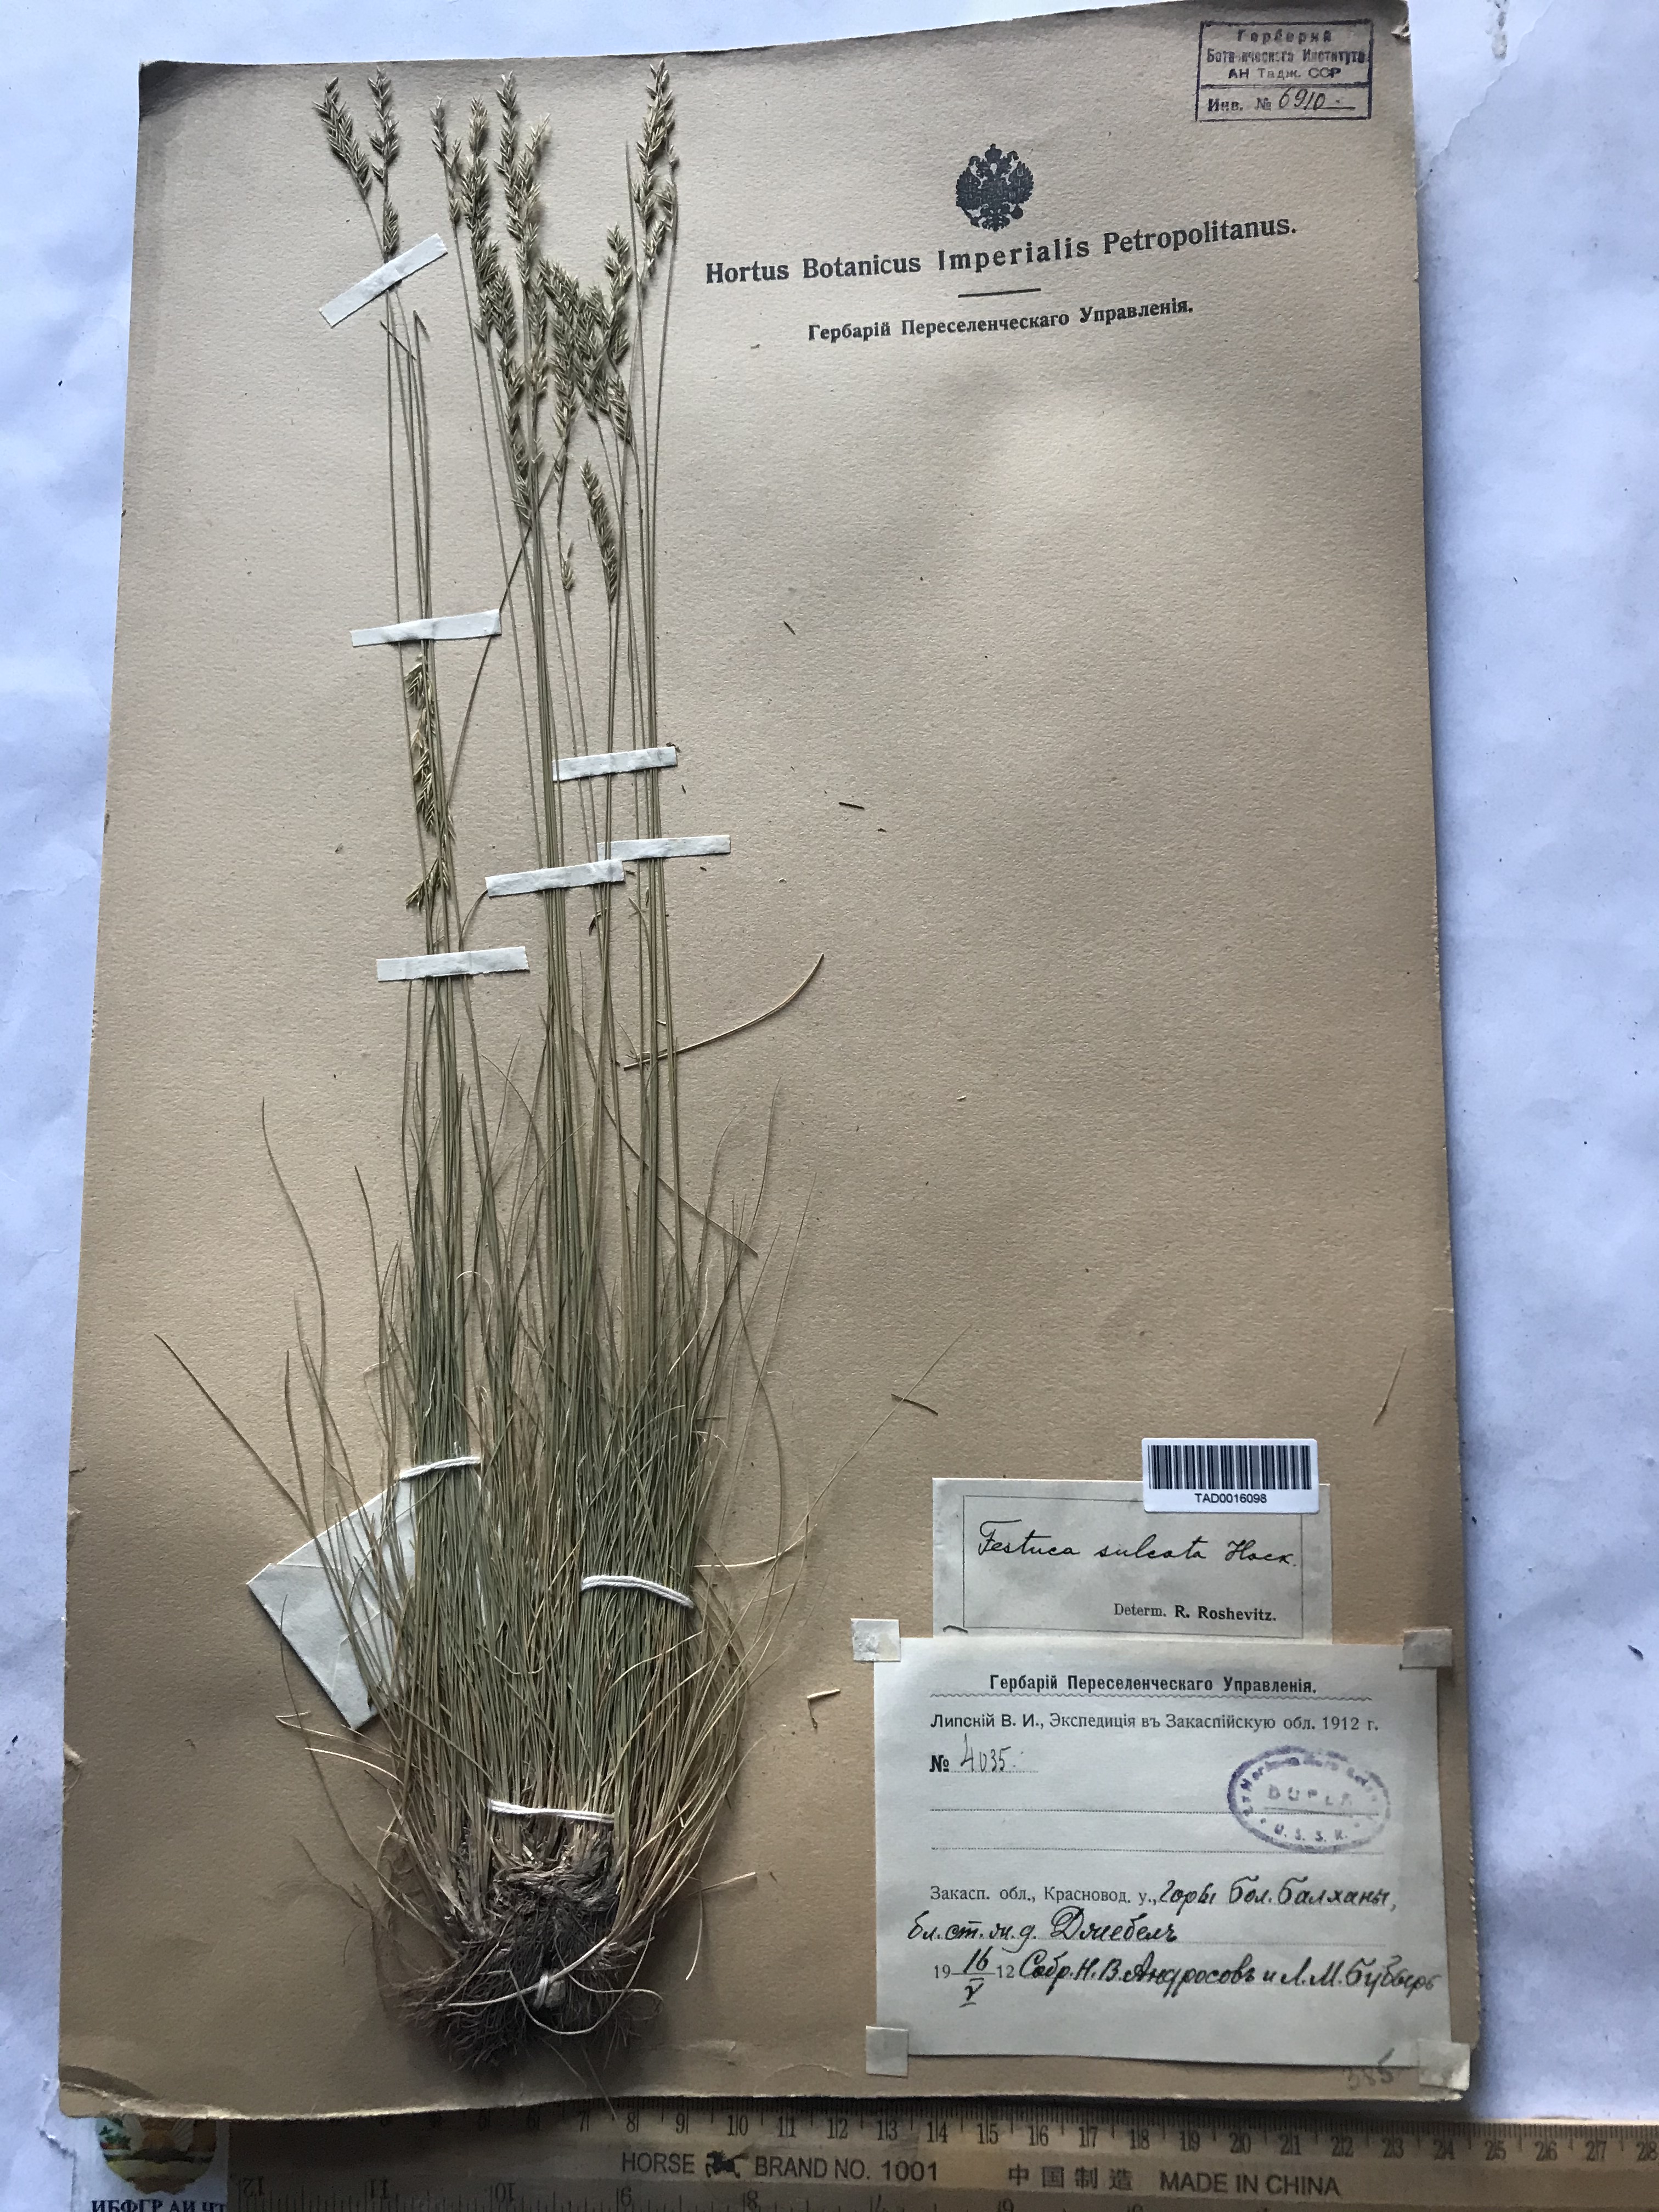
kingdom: Plantae
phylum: Tracheophyta
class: Liliopsida
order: Poales
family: Poaceae
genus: Festuca
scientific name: Festuca sulcata
